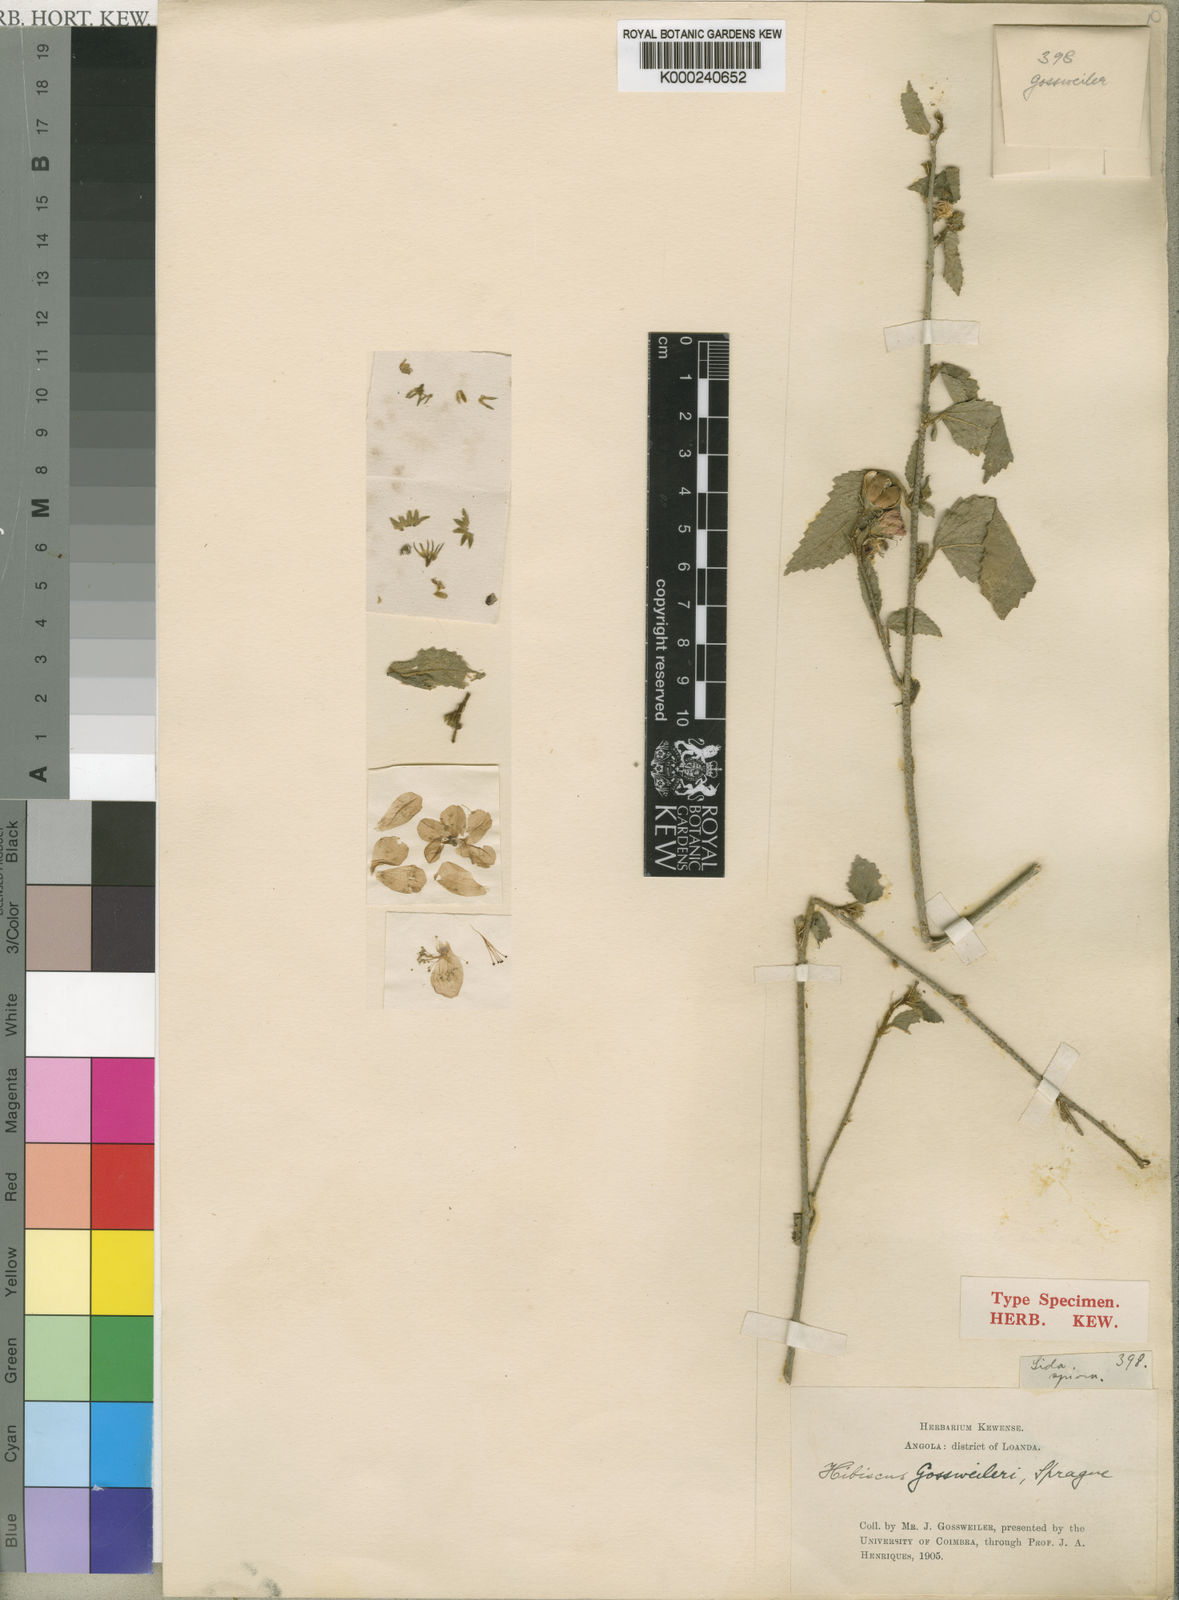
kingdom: Plantae
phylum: Tracheophyta
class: Magnoliopsida
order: Malvales
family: Malvaceae
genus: Hibiscus
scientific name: Hibiscus gossweileri
